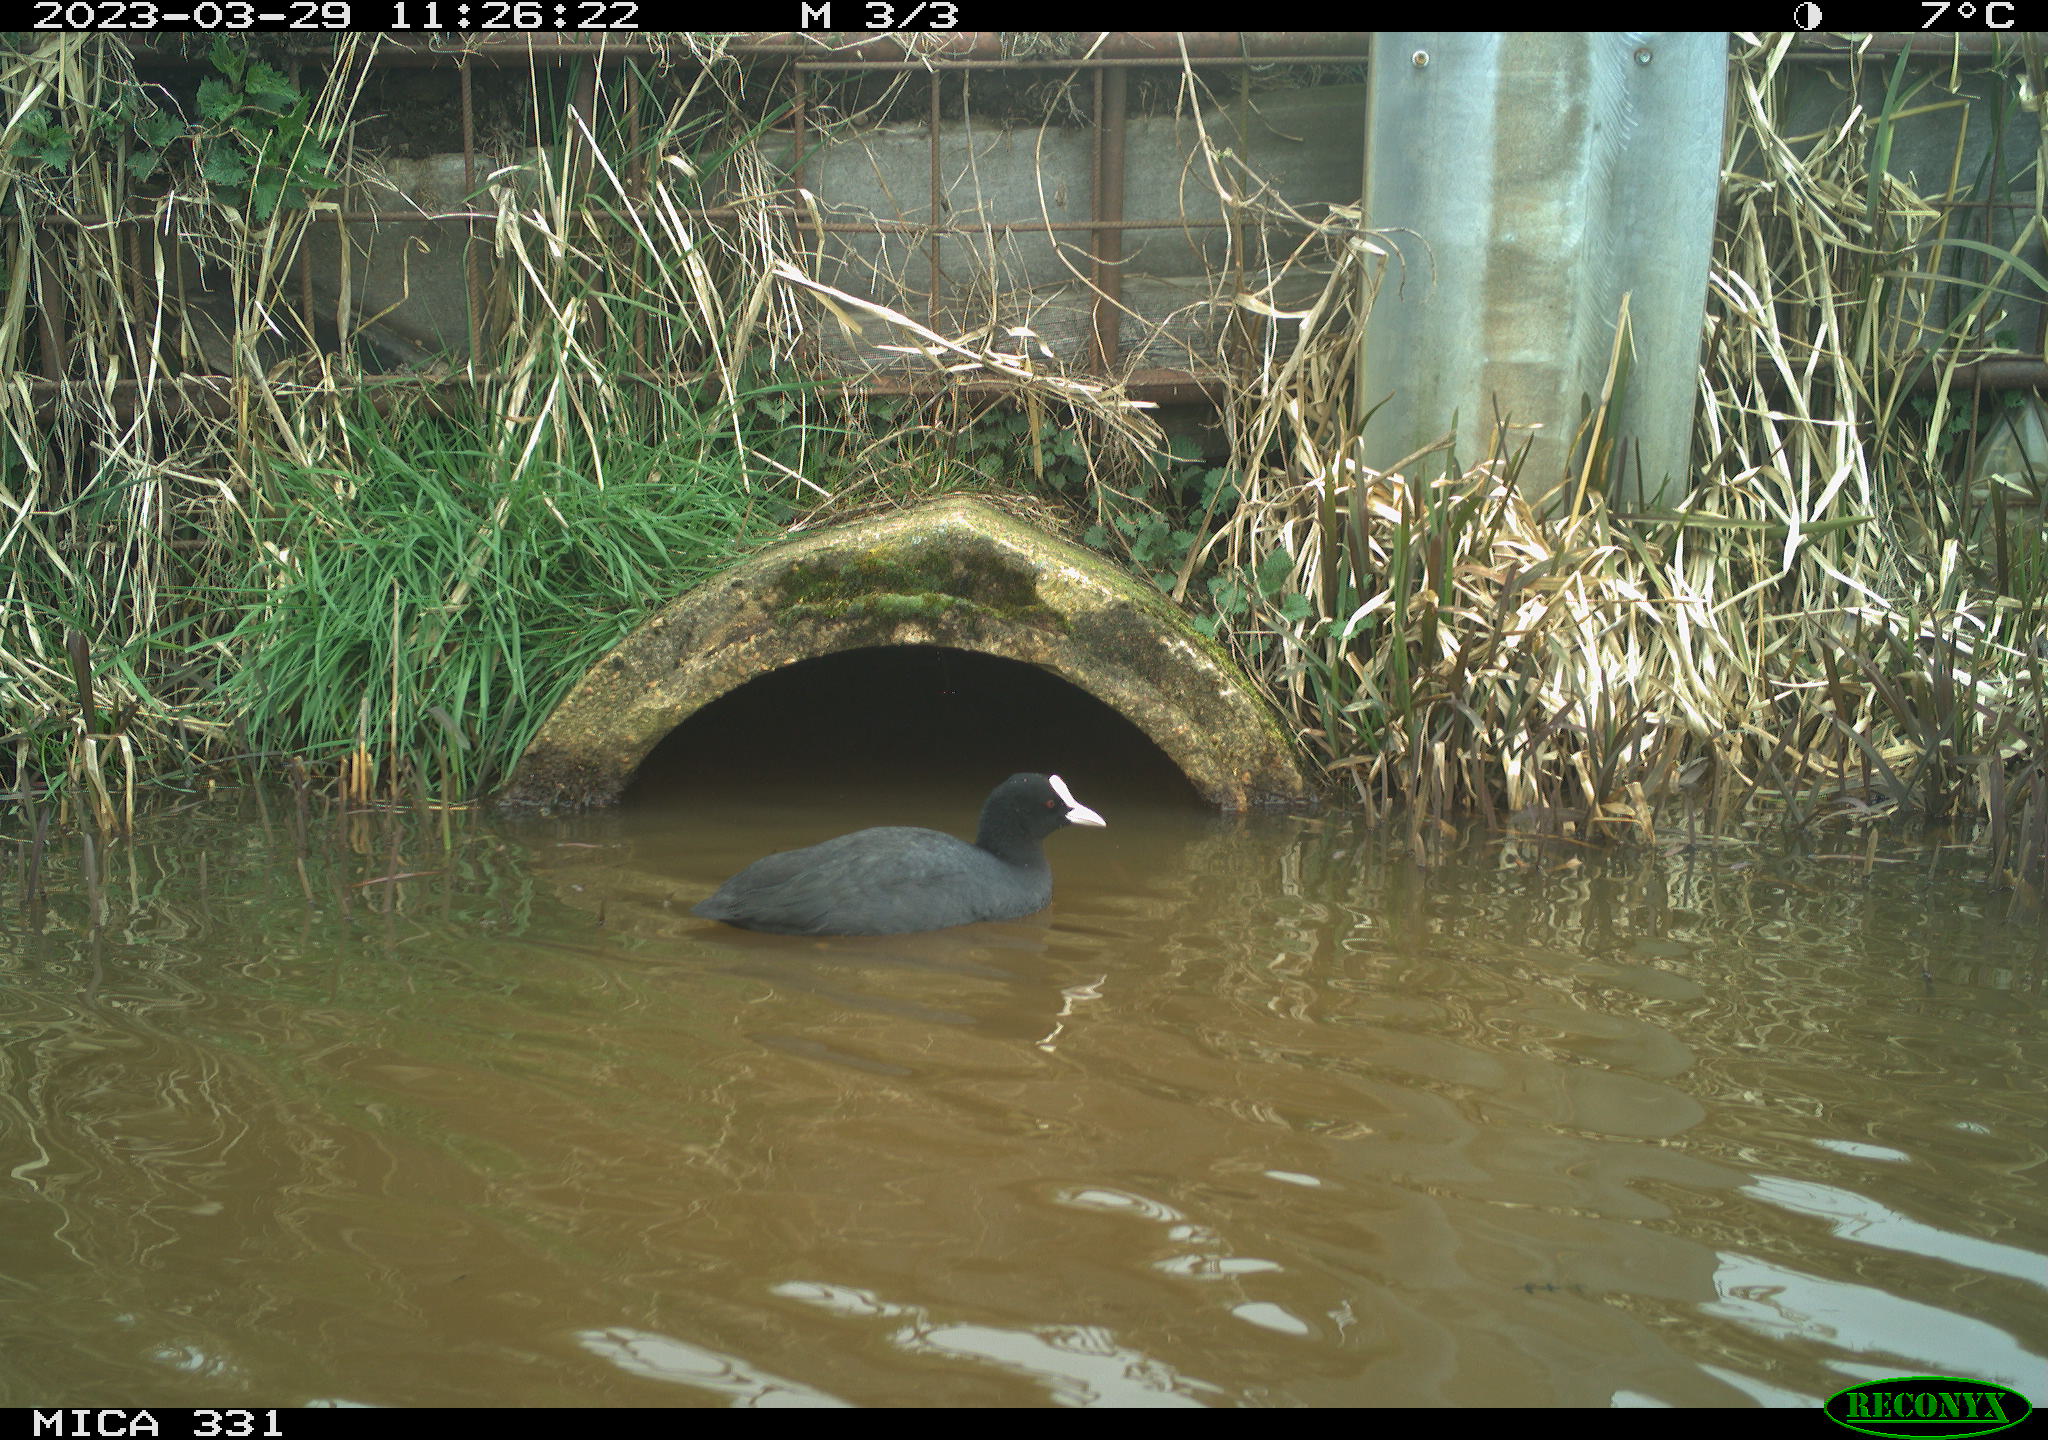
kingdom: Animalia
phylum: Chordata
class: Aves
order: Gruiformes
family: Rallidae
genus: Fulica
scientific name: Fulica atra
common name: Eurasian coot
